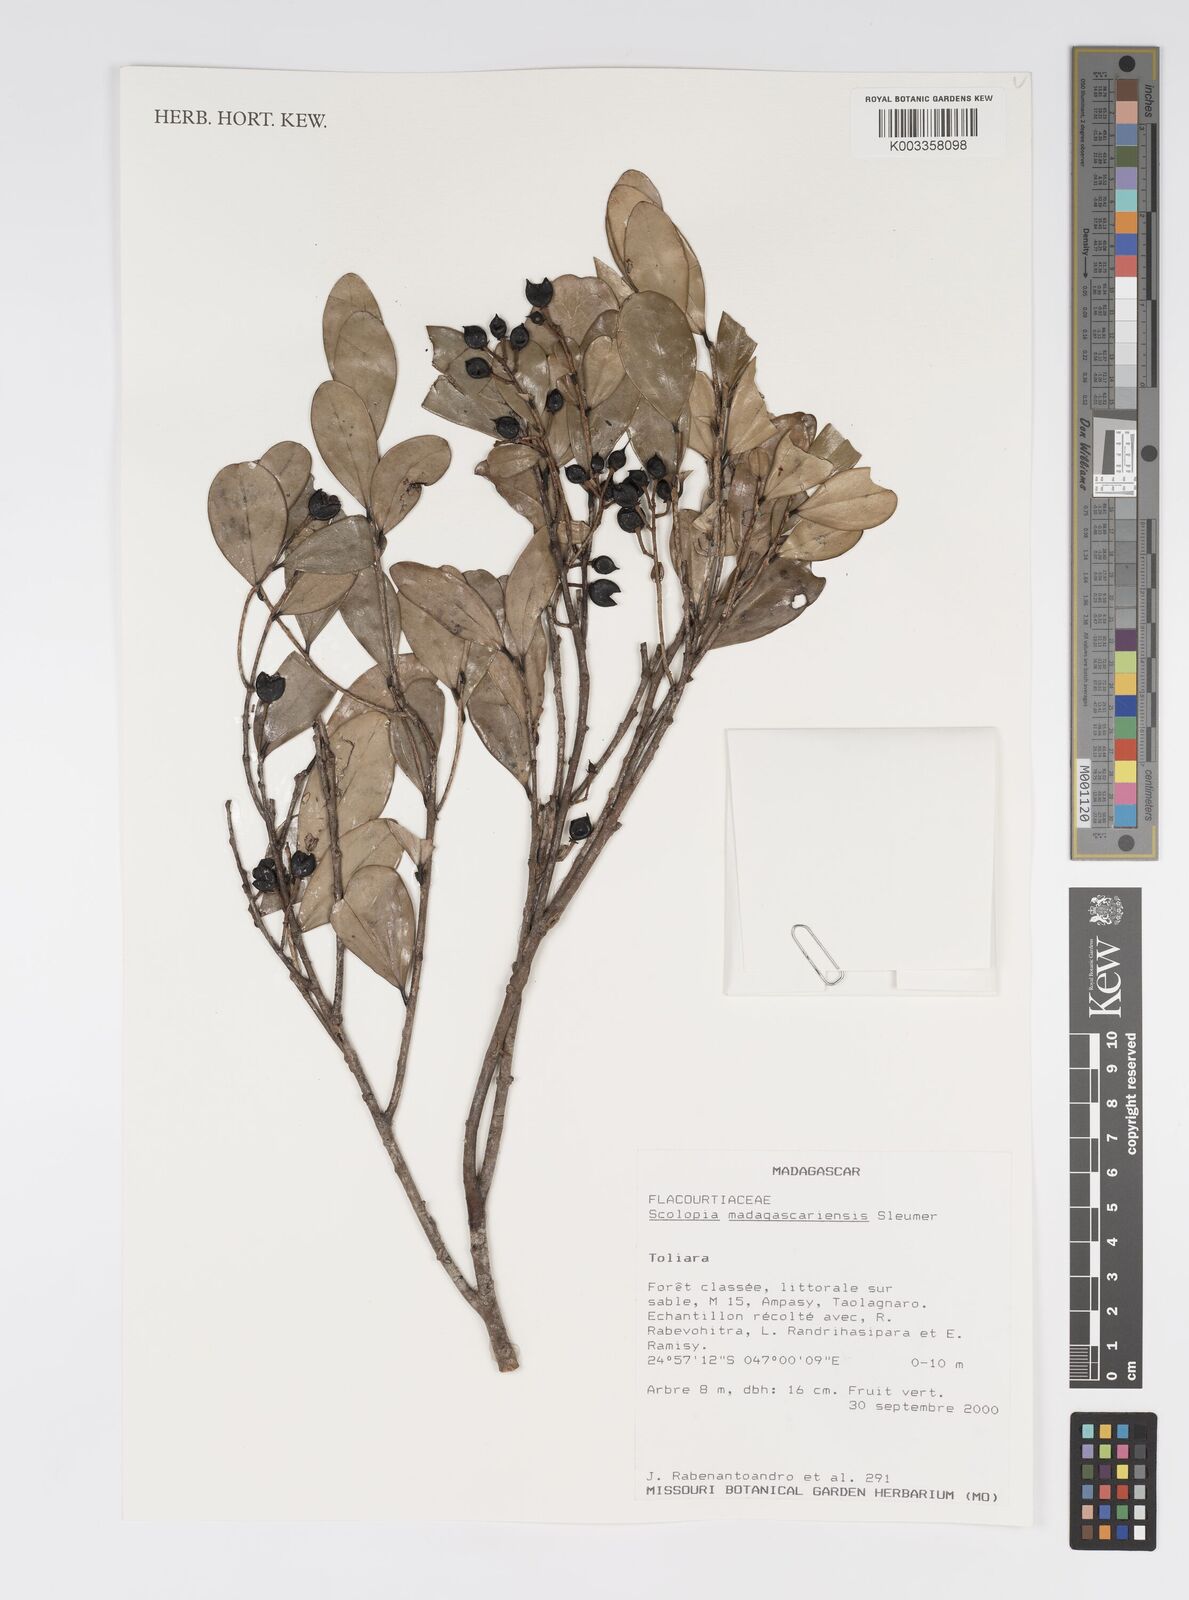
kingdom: Plantae
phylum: Tracheophyta
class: Magnoliopsida
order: Malpighiales
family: Salicaceae
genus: Scolopia
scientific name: Scolopia madagascariensis
